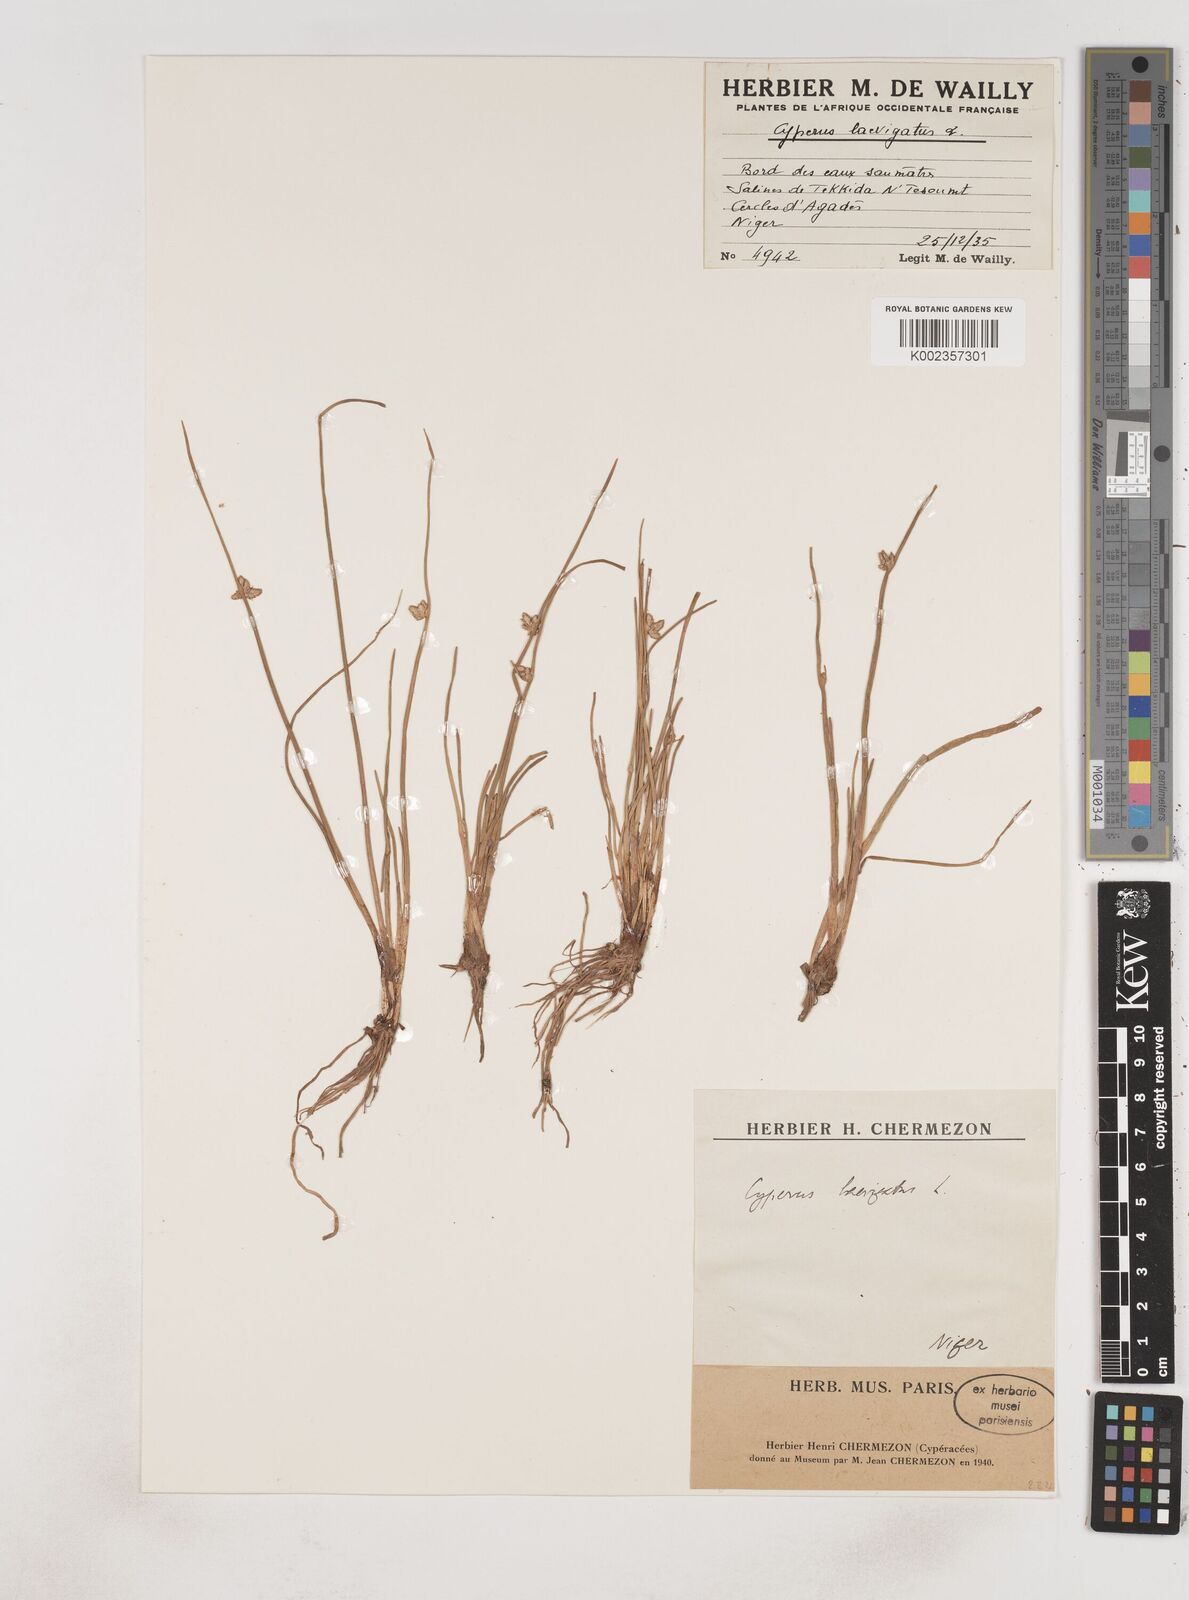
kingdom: Plantae
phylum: Tracheophyta
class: Liliopsida
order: Poales
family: Cyperaceae
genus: Cyperus
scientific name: Cyperus laevigatus
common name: Smooth flat sedge
